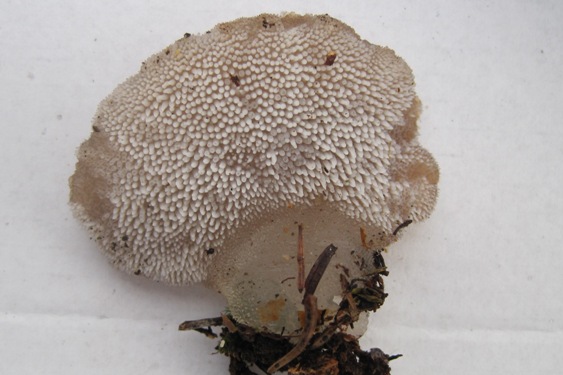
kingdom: Fungi
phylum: Basidiomycota
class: Agaricomycetes
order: Auriculariales
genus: Pseudohydnum
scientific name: Pseudohydnum gelatinosum
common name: bævretand
